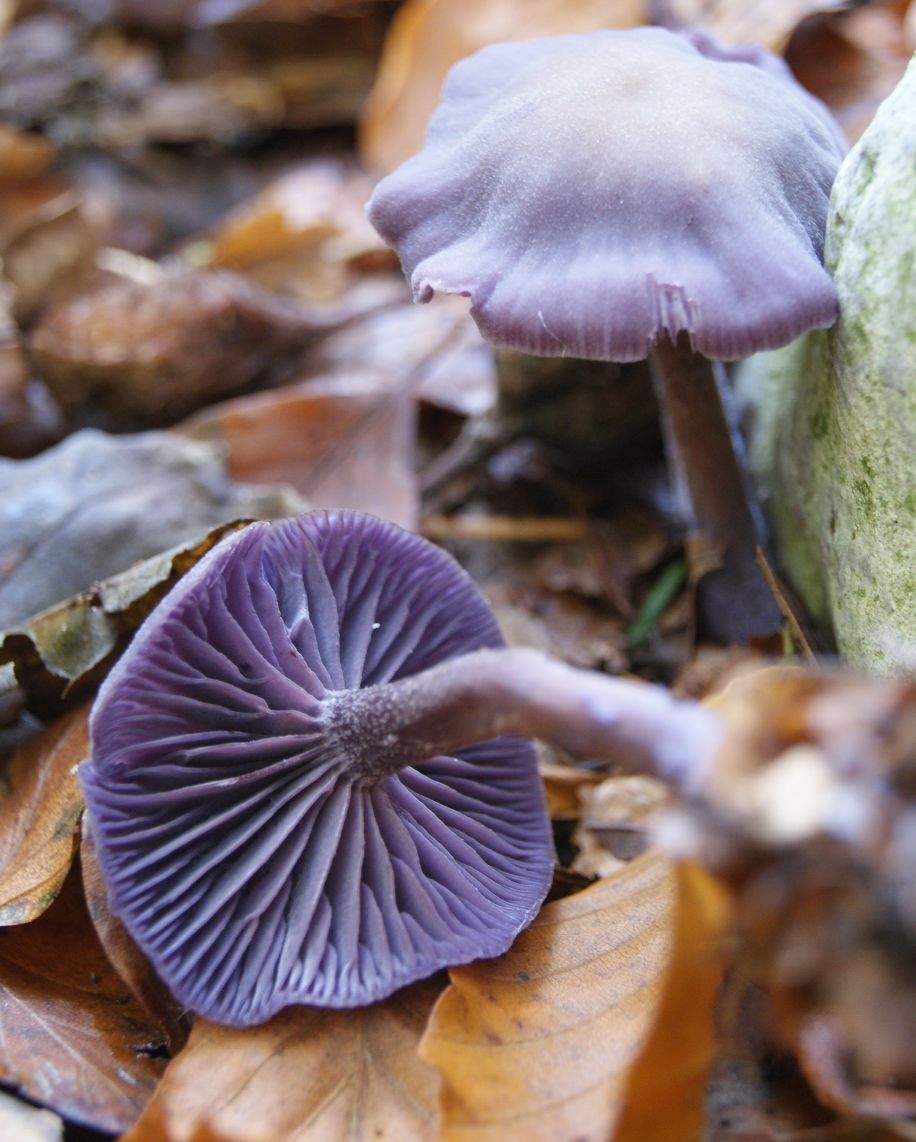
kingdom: Fungi
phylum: Basidiomycota
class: Agaricomycetes
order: Agaricales
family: Hydnangiaceae
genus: Laccaria
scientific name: Laccaria amethystina
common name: violet ametysthat
